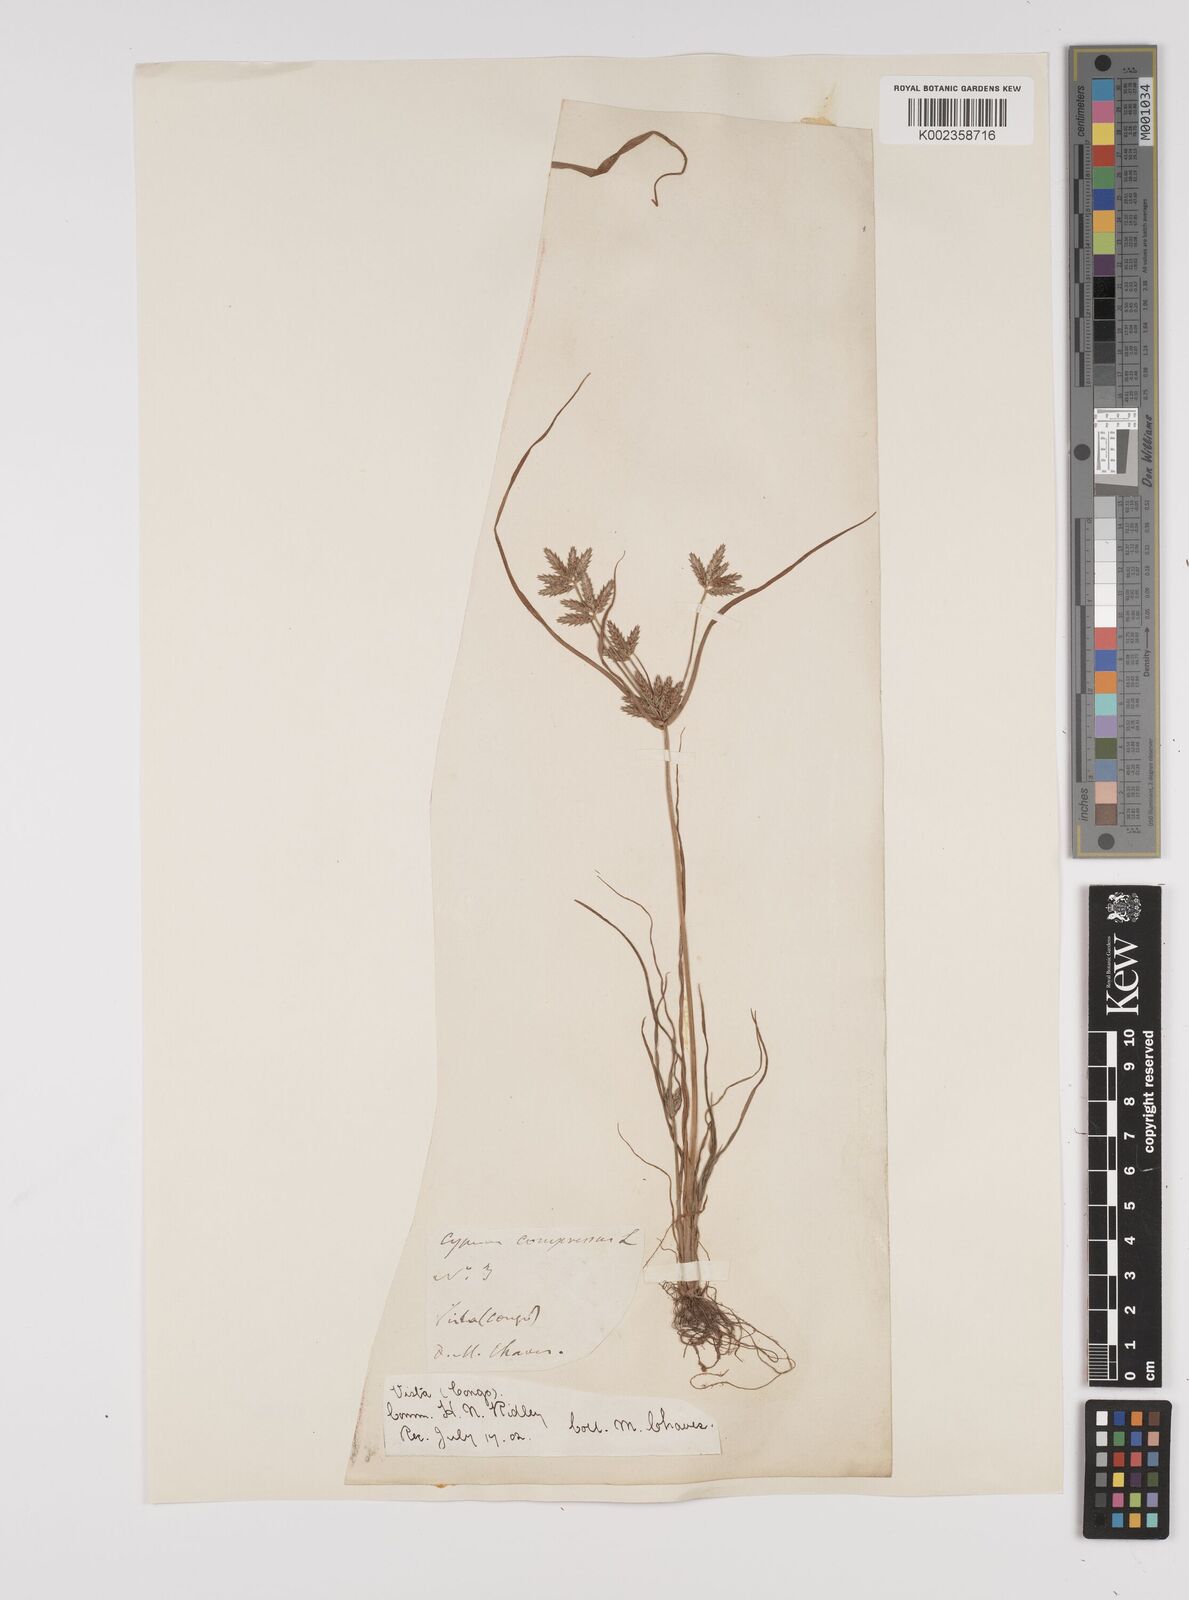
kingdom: Plantae
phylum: Tracheophyta
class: Liliopsida
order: Poales
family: Cyperaceae
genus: Cyperus
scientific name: Cyperus compressus
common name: Poorland flatsedge
